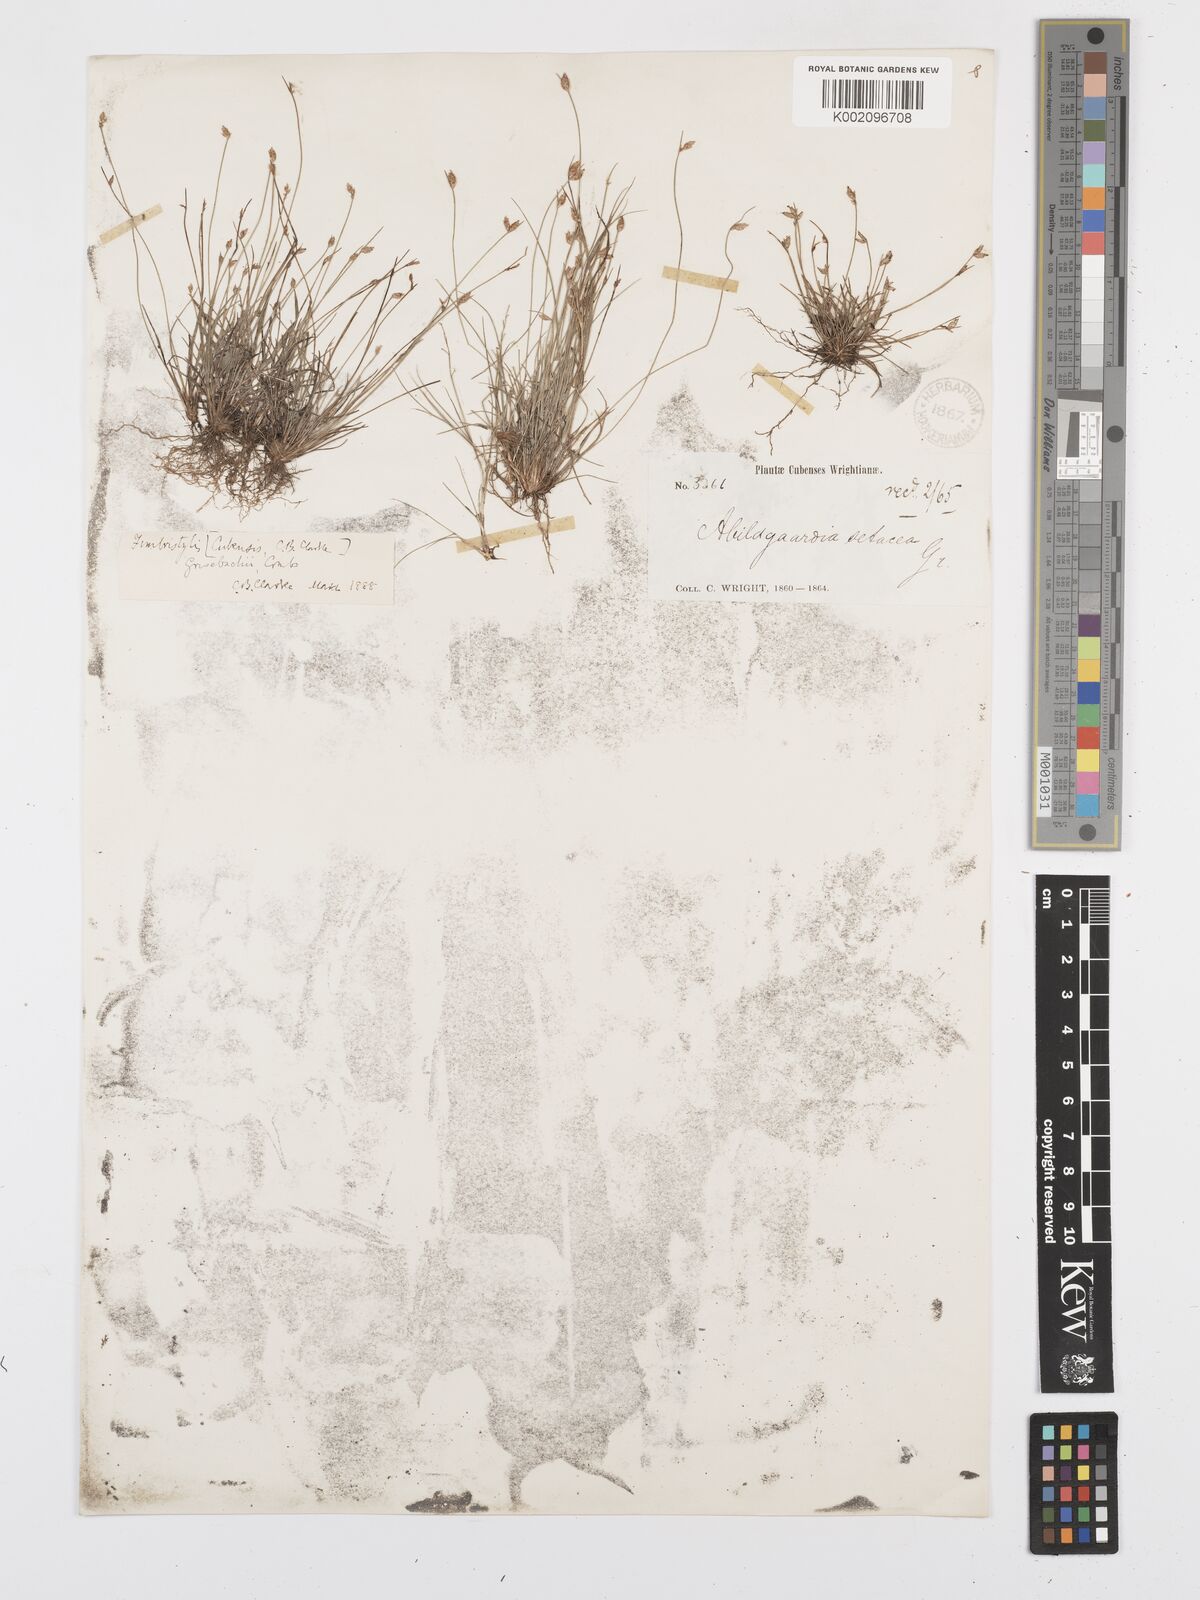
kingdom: Plantae
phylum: Tracheophyta
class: Liliopsida
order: Poales
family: Cyperaceae
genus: Bulbostylis
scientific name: Bulbostylis setacea
